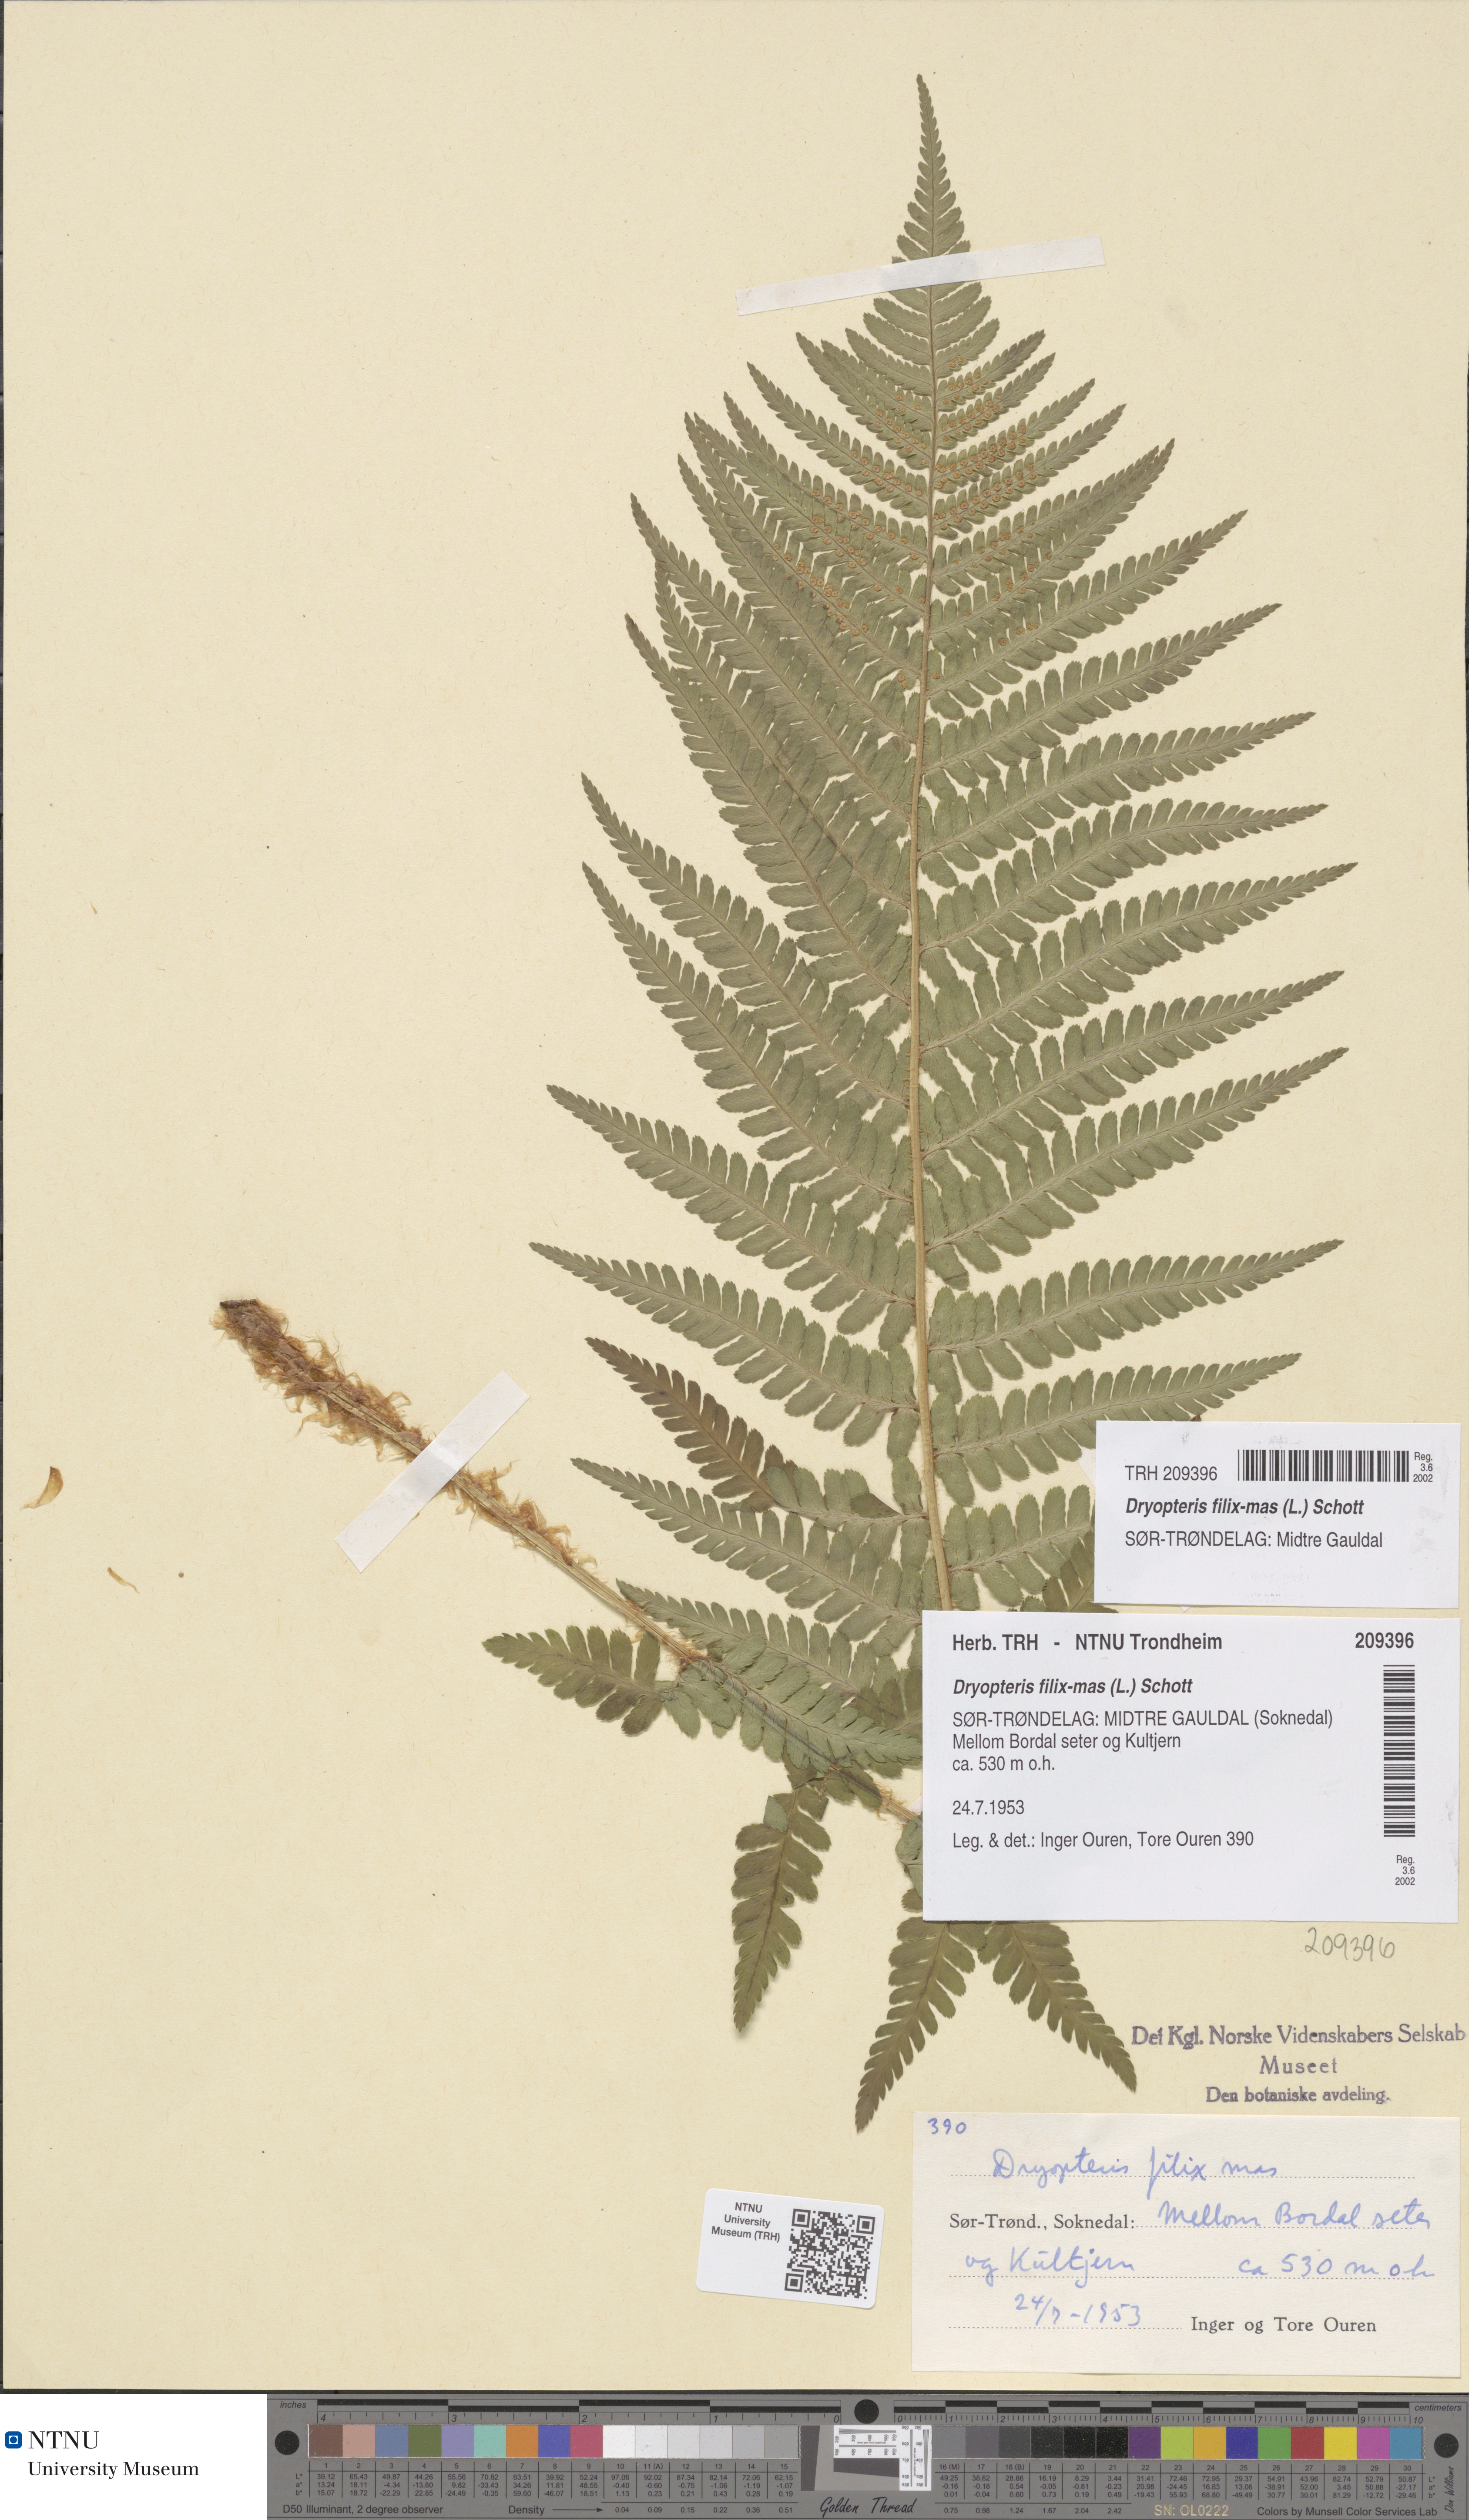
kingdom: Plantae
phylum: Tracheophyta
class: Polypodiopsida
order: Polypodiales
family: Dryopteridaceae
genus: Dryopteris
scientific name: Dryopteris filix-mas
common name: Male fern
